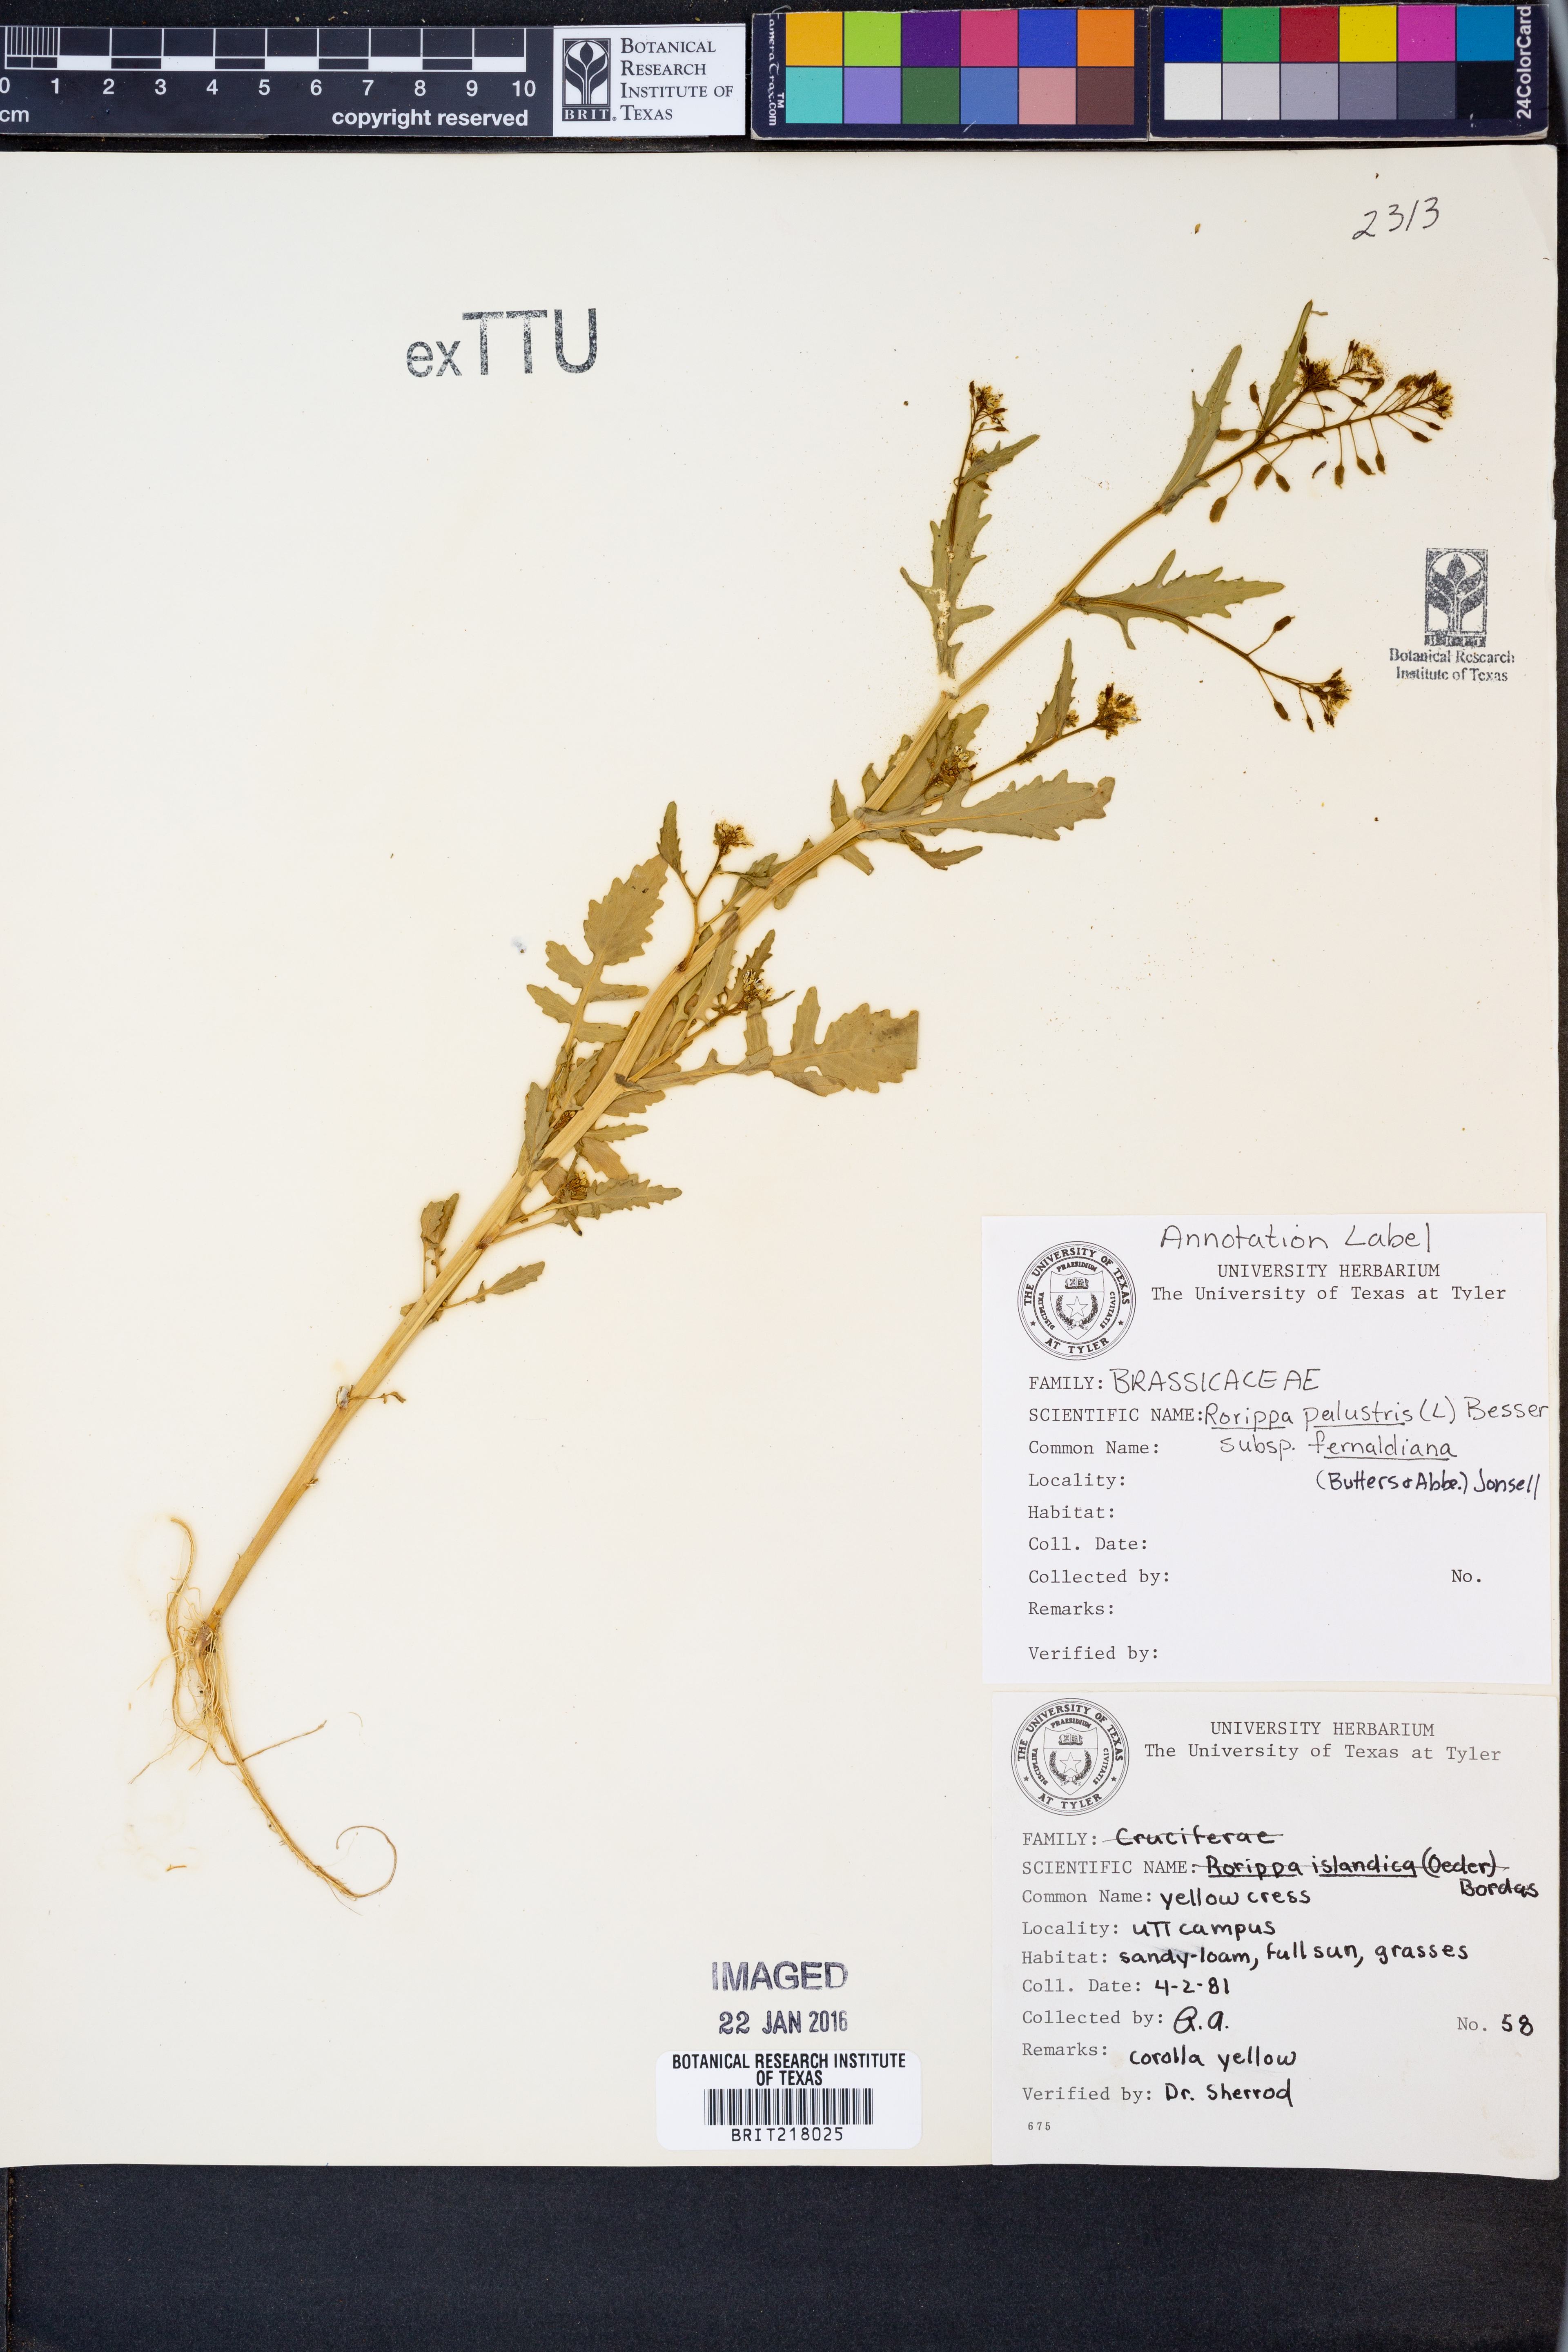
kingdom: Plantae
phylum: Tracheophyta
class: Magnoliopsida
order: Brassicales
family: Brassicaceae
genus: Rorippa
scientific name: Rorippa palustris
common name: Marsh yellow-cress
